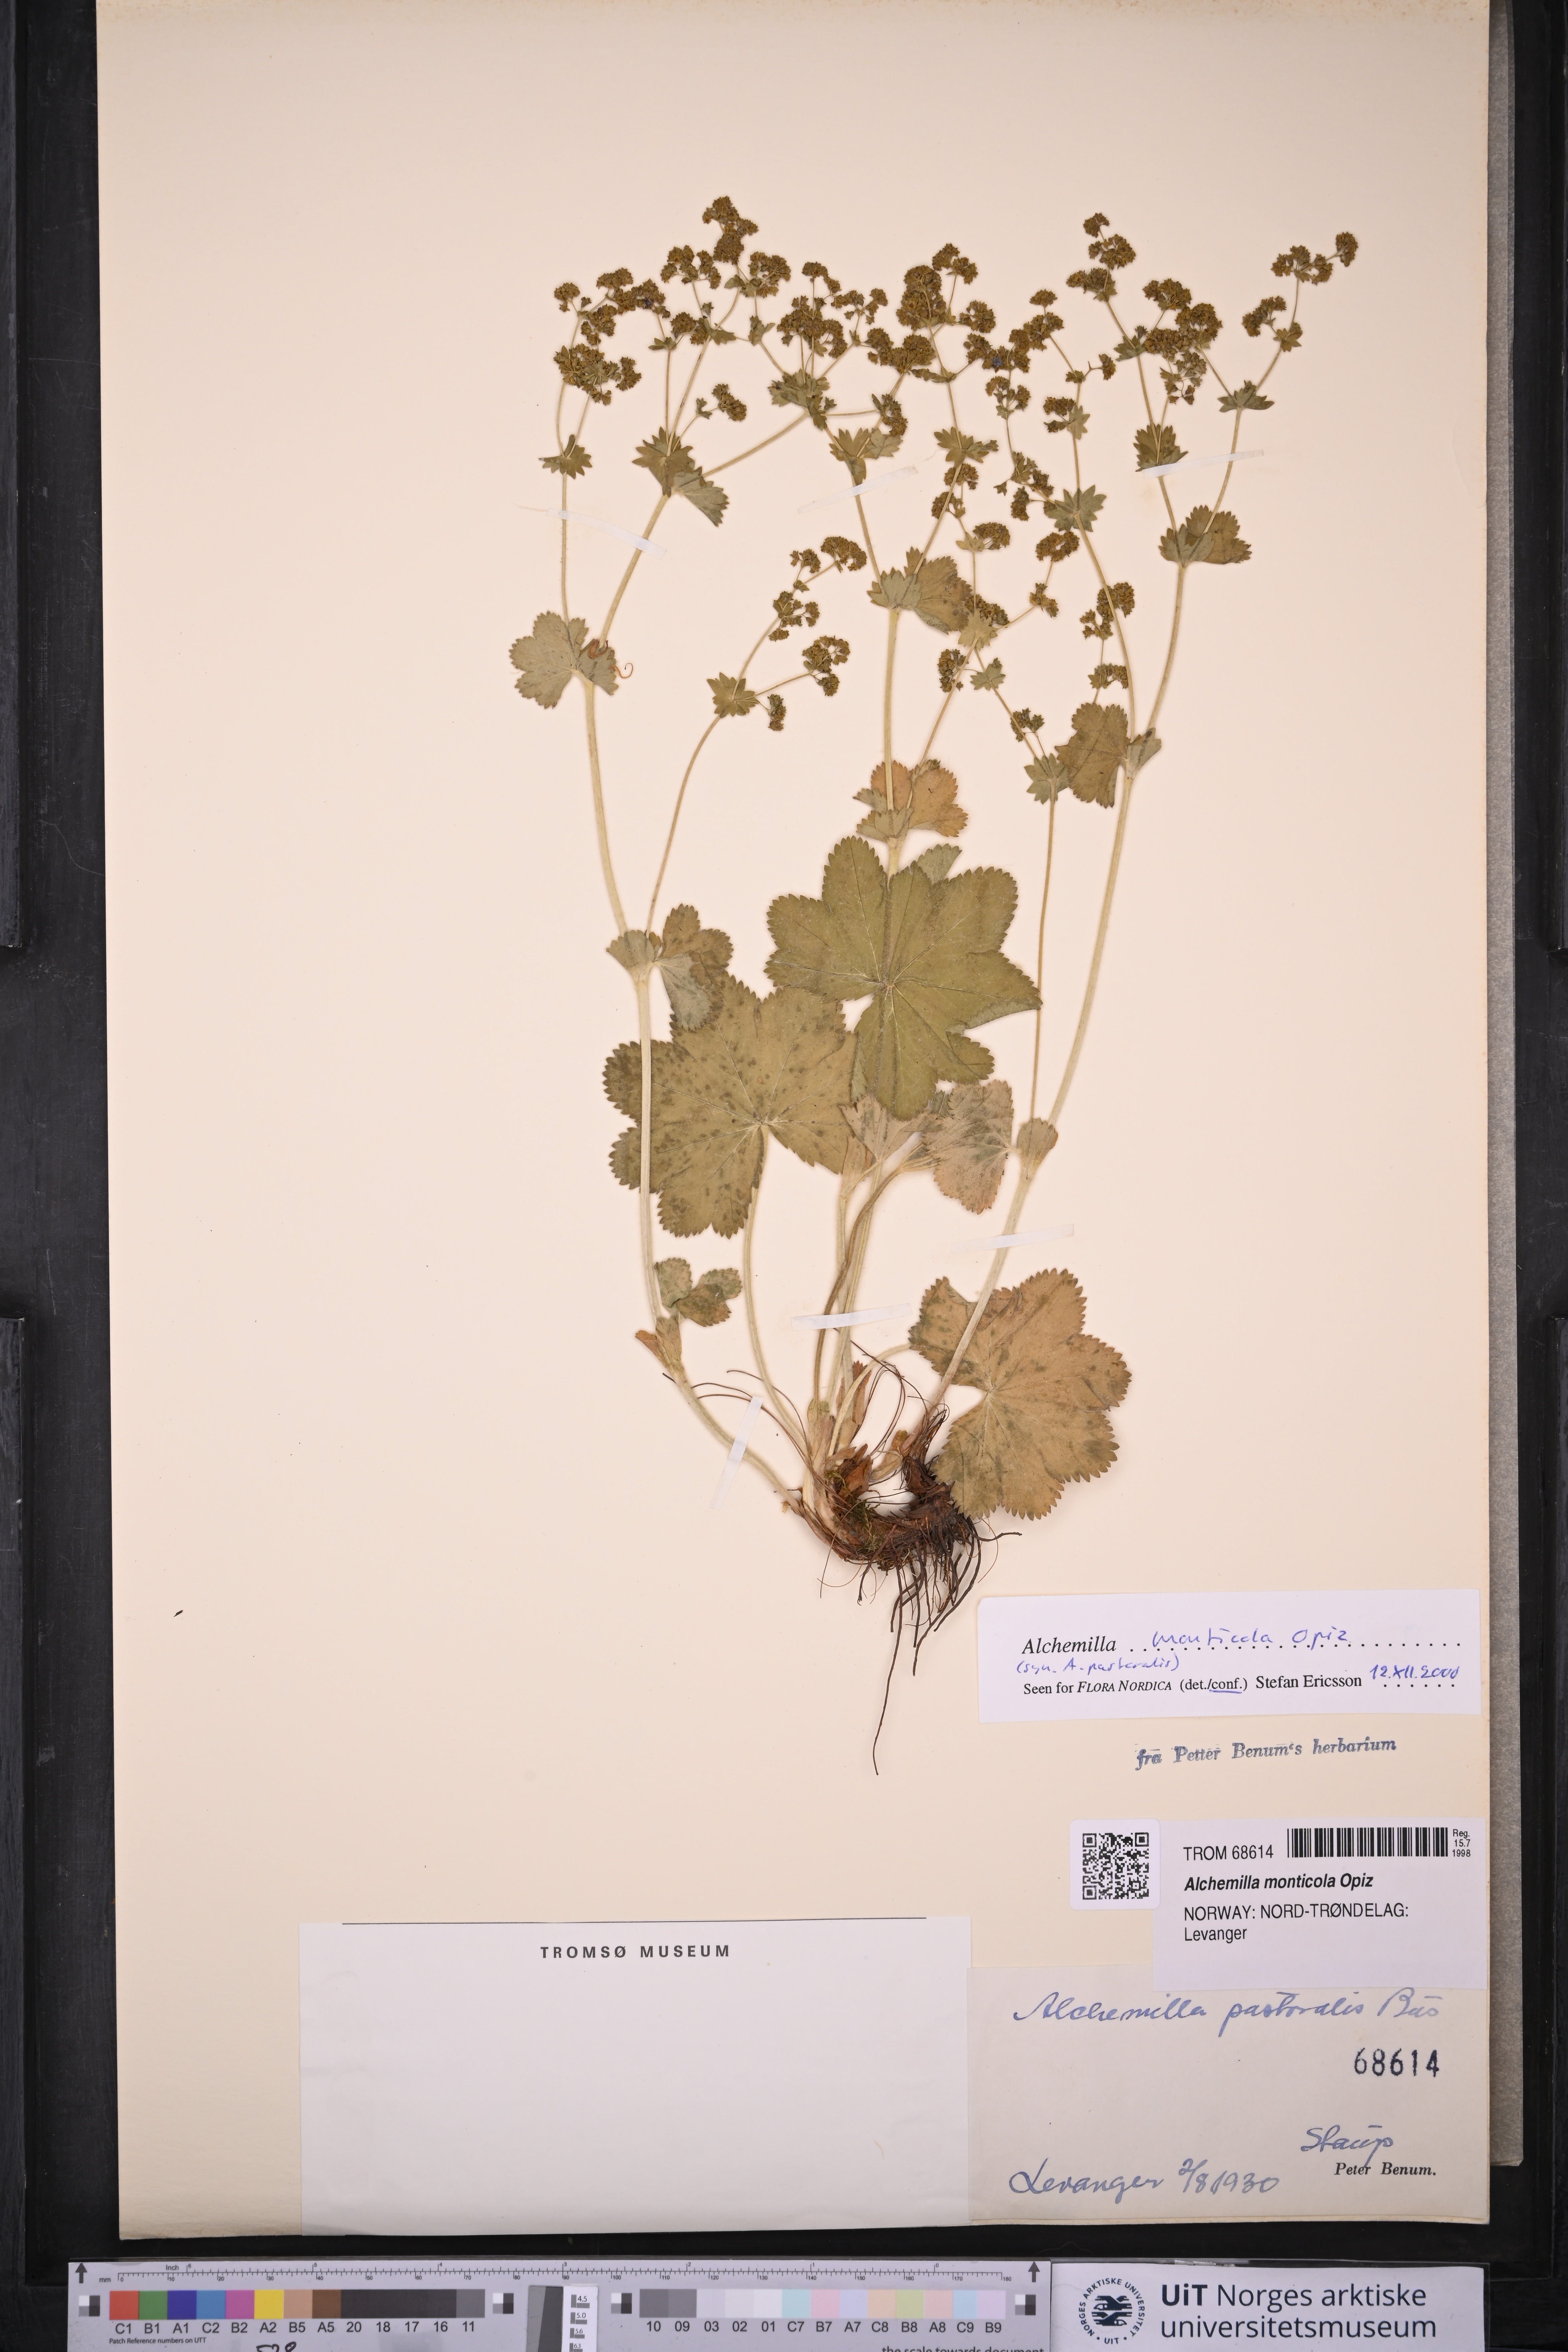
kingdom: Plantae
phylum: Tracheophyta
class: Magnoliopsida
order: Rosales
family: Rosaceae
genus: Alchemilla
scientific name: Alchemilla monticola
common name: Hairy lady's mantle
